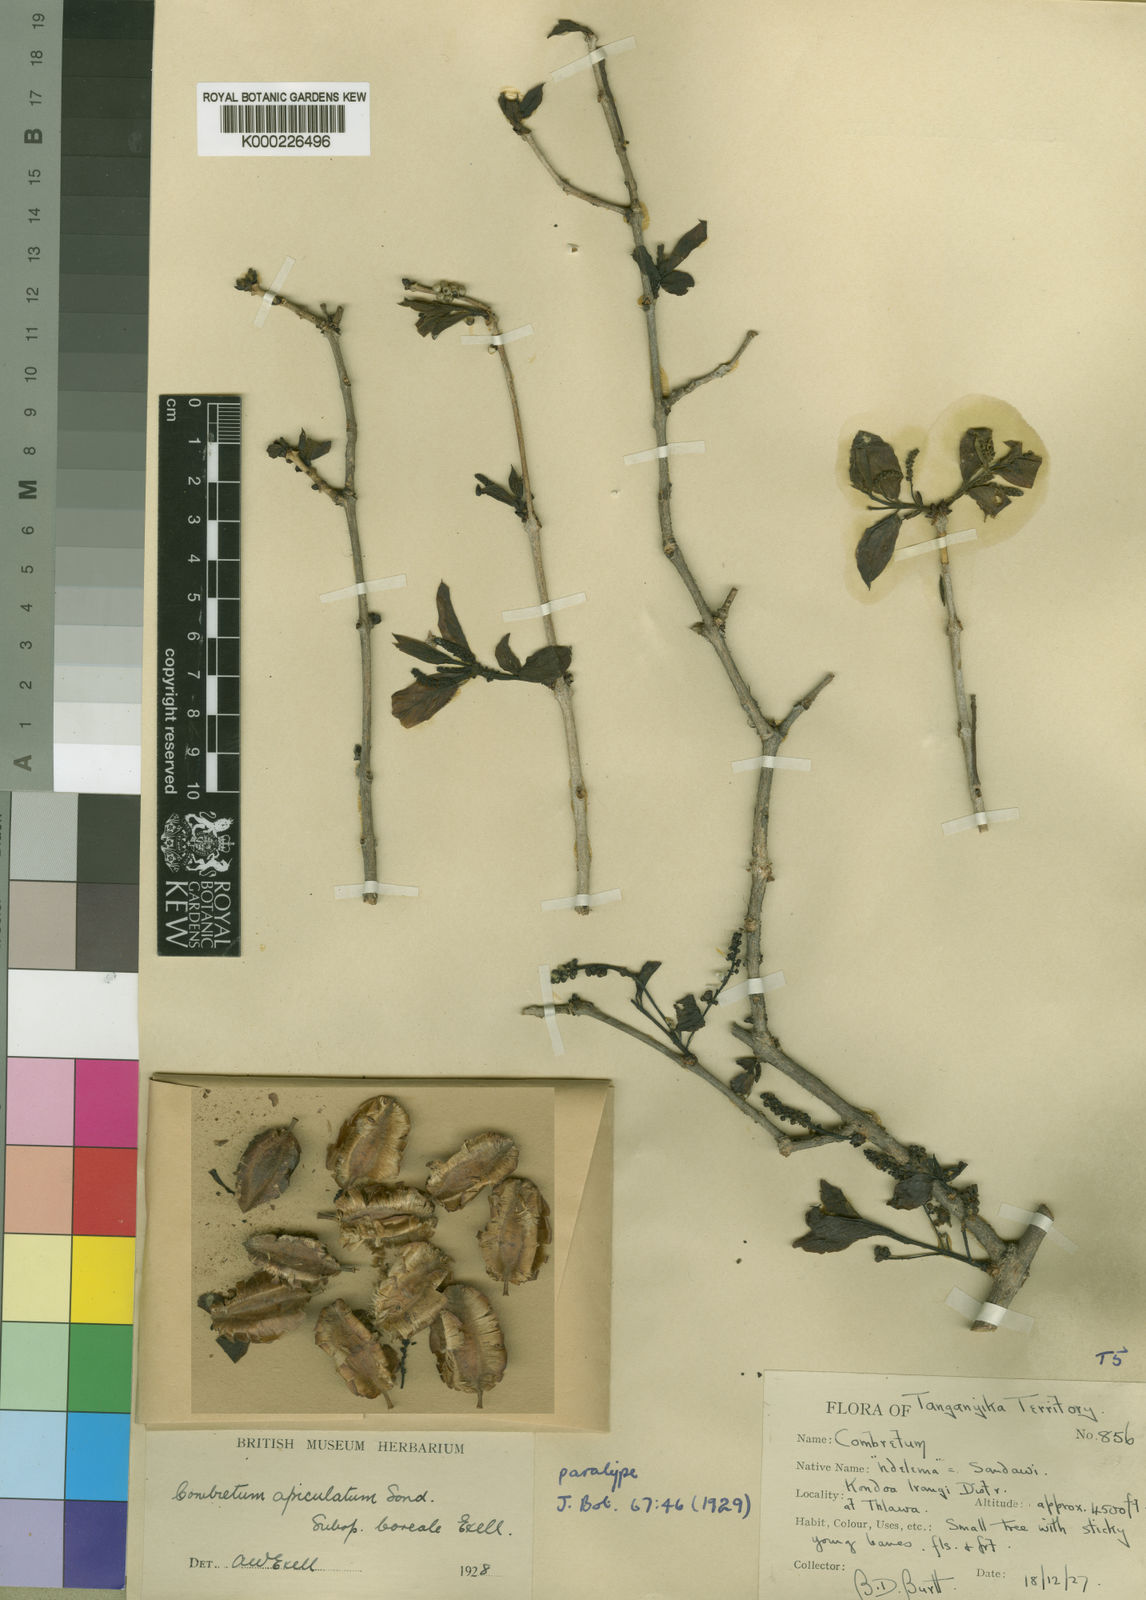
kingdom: Plantae
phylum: Tracheophyta
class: Magnoliopsida
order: Myrtales
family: Combretaceae
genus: Combretum
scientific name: Combretum apiculatum
